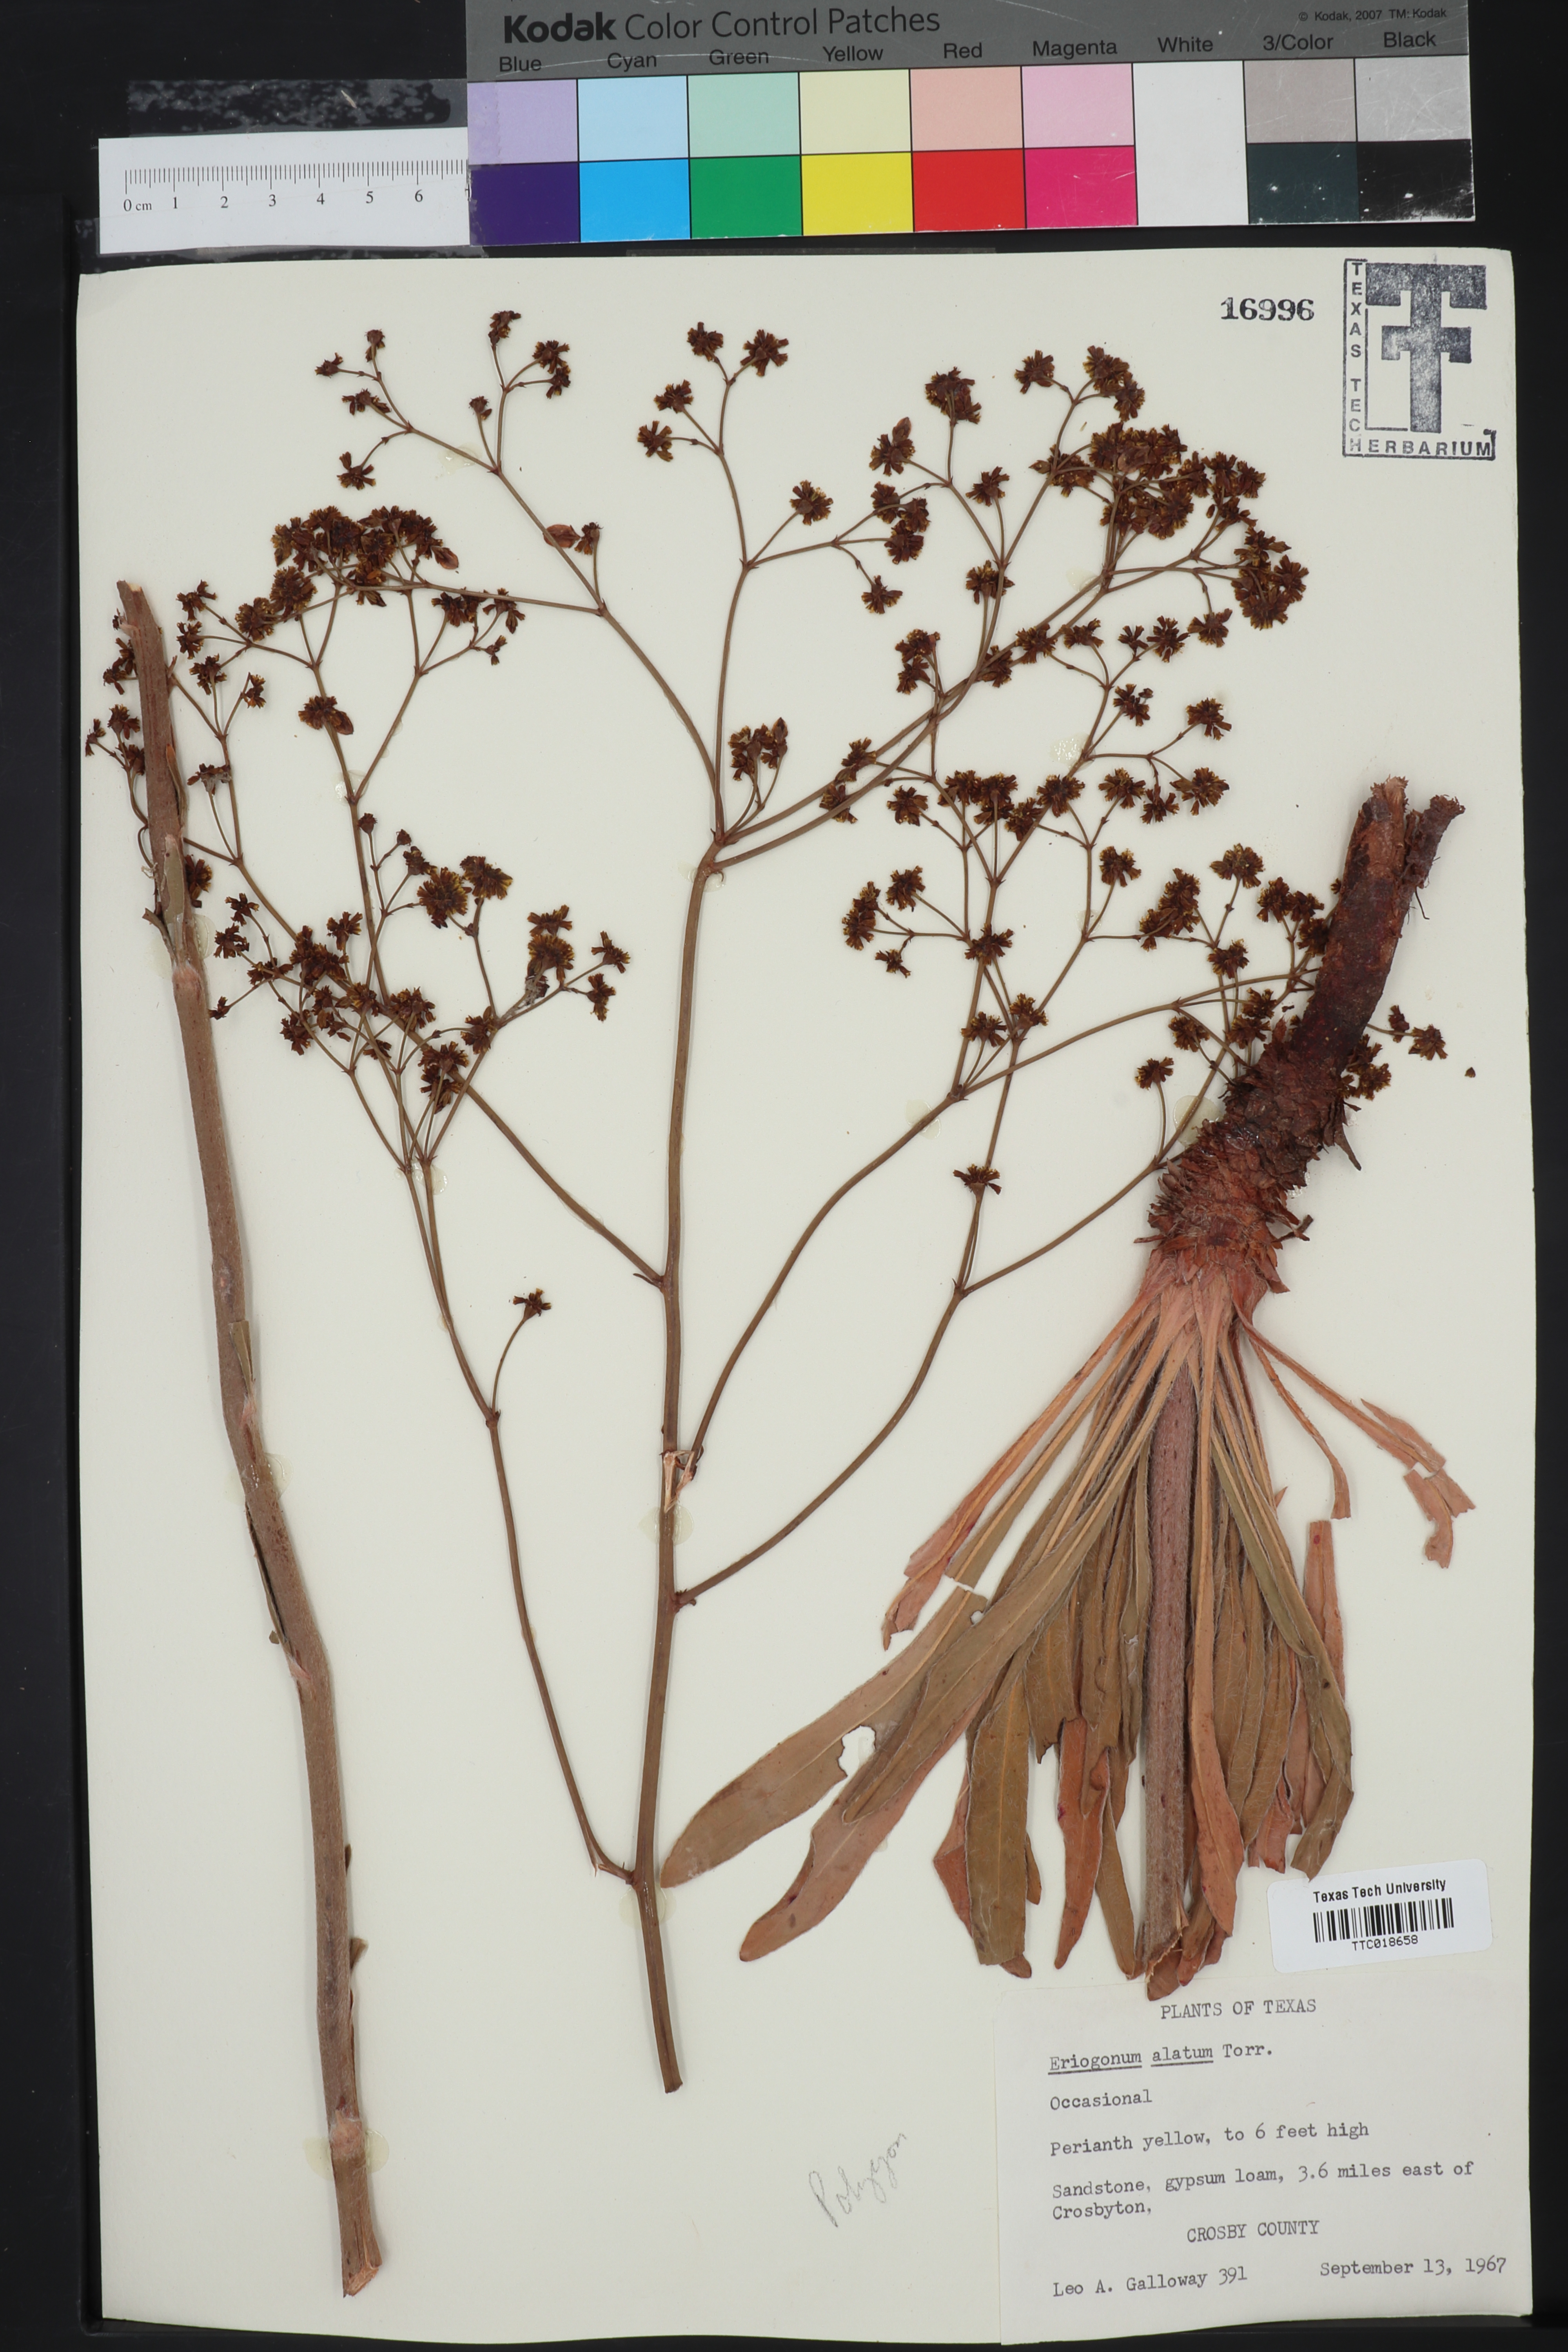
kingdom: Plantae
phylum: Tracheophyta
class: Magnoliopsida
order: Caryophyllales
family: Polygonaceae
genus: Eriogonum
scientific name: Eriogonum longifolium
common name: Longleaf wild buckwheat
